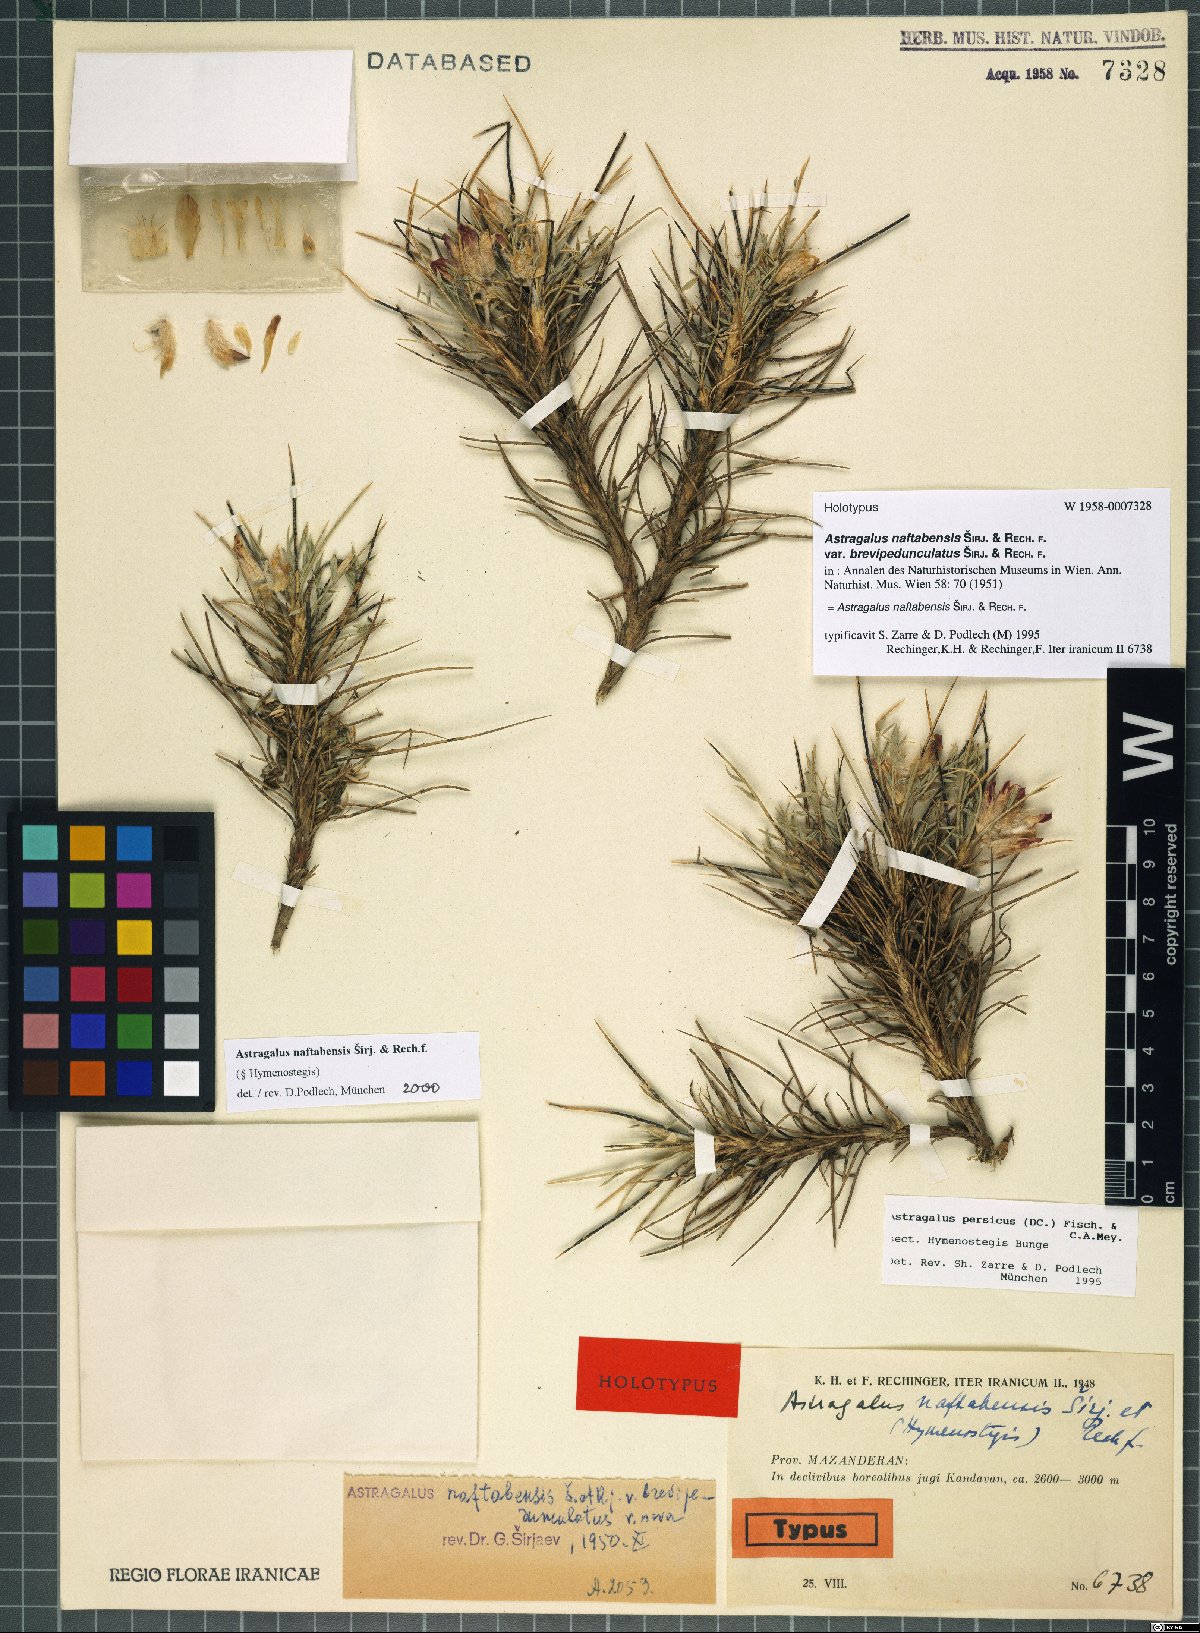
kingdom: Plantae
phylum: Tracheophyta
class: Magnoliopsida
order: Fabales
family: Fabaceae
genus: Astragalus
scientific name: Astragalus naftabensis
